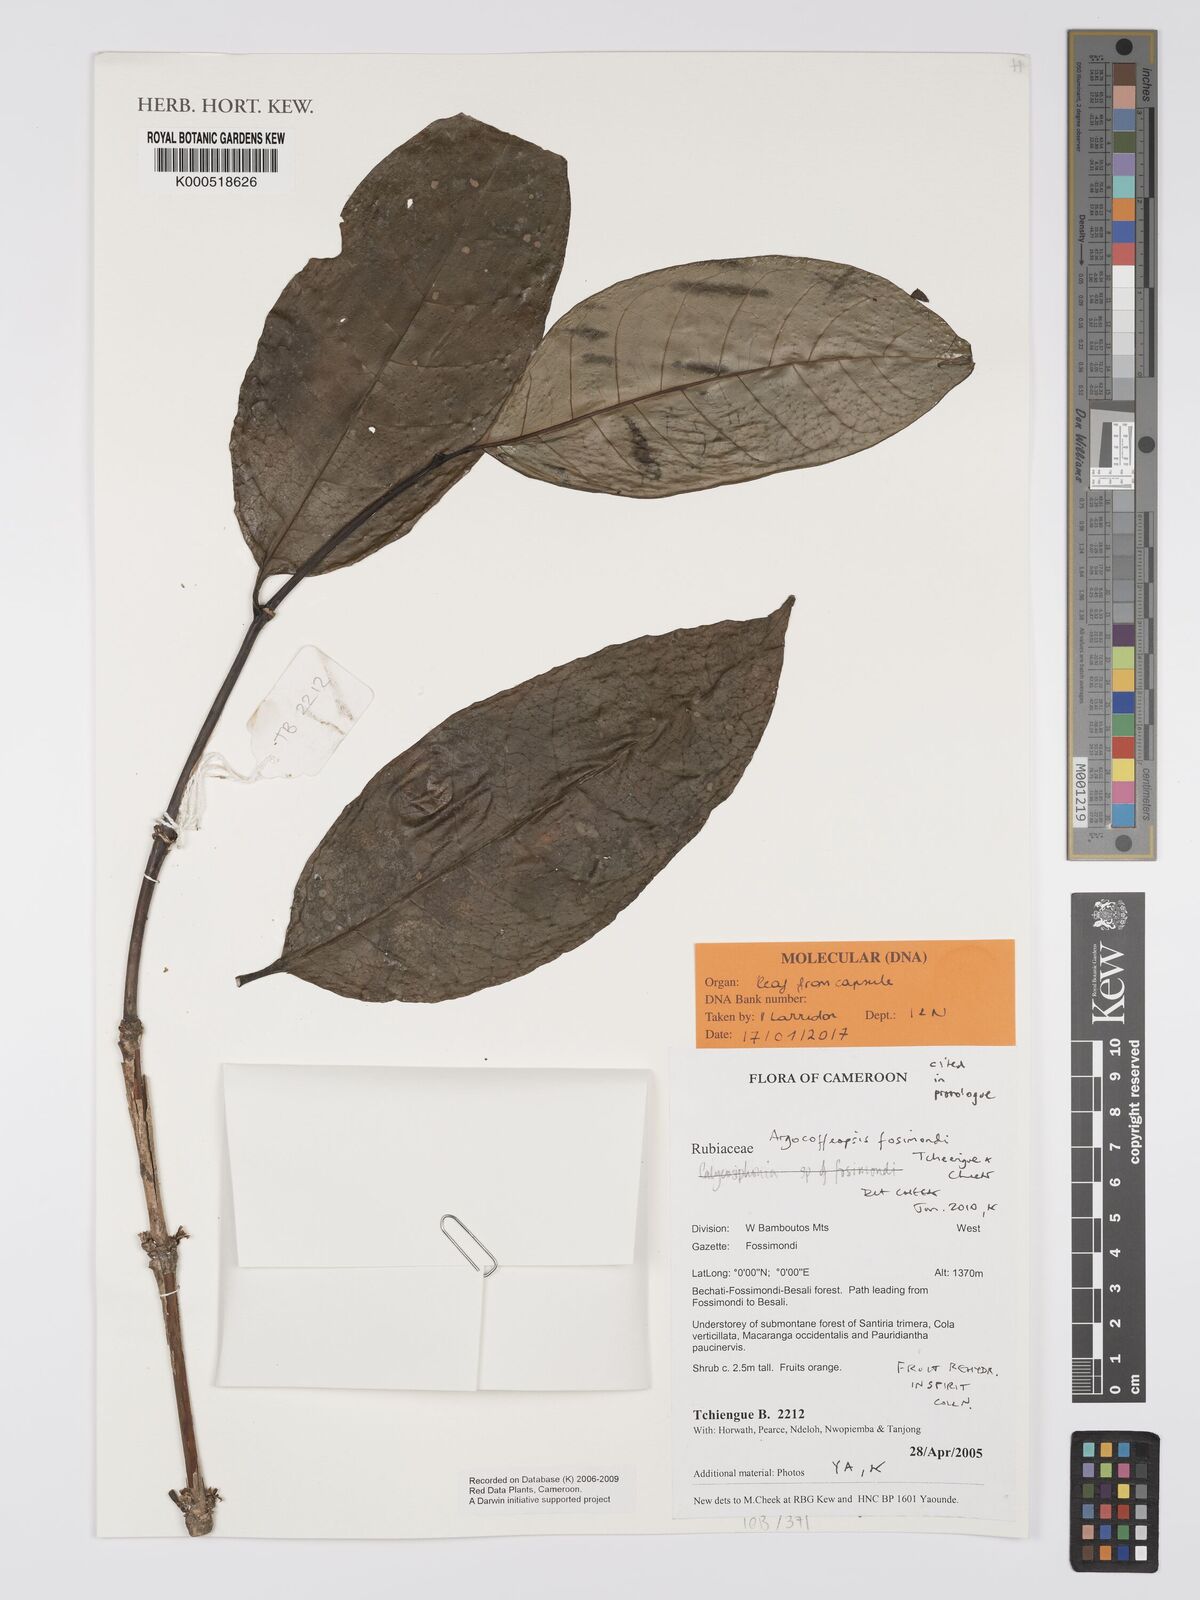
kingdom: Plantae
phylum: Tracheophyta
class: Magnoliopsida
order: Gentianales
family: Rubiaceae
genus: Argocoffeopsis
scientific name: Argocoffeopsis
